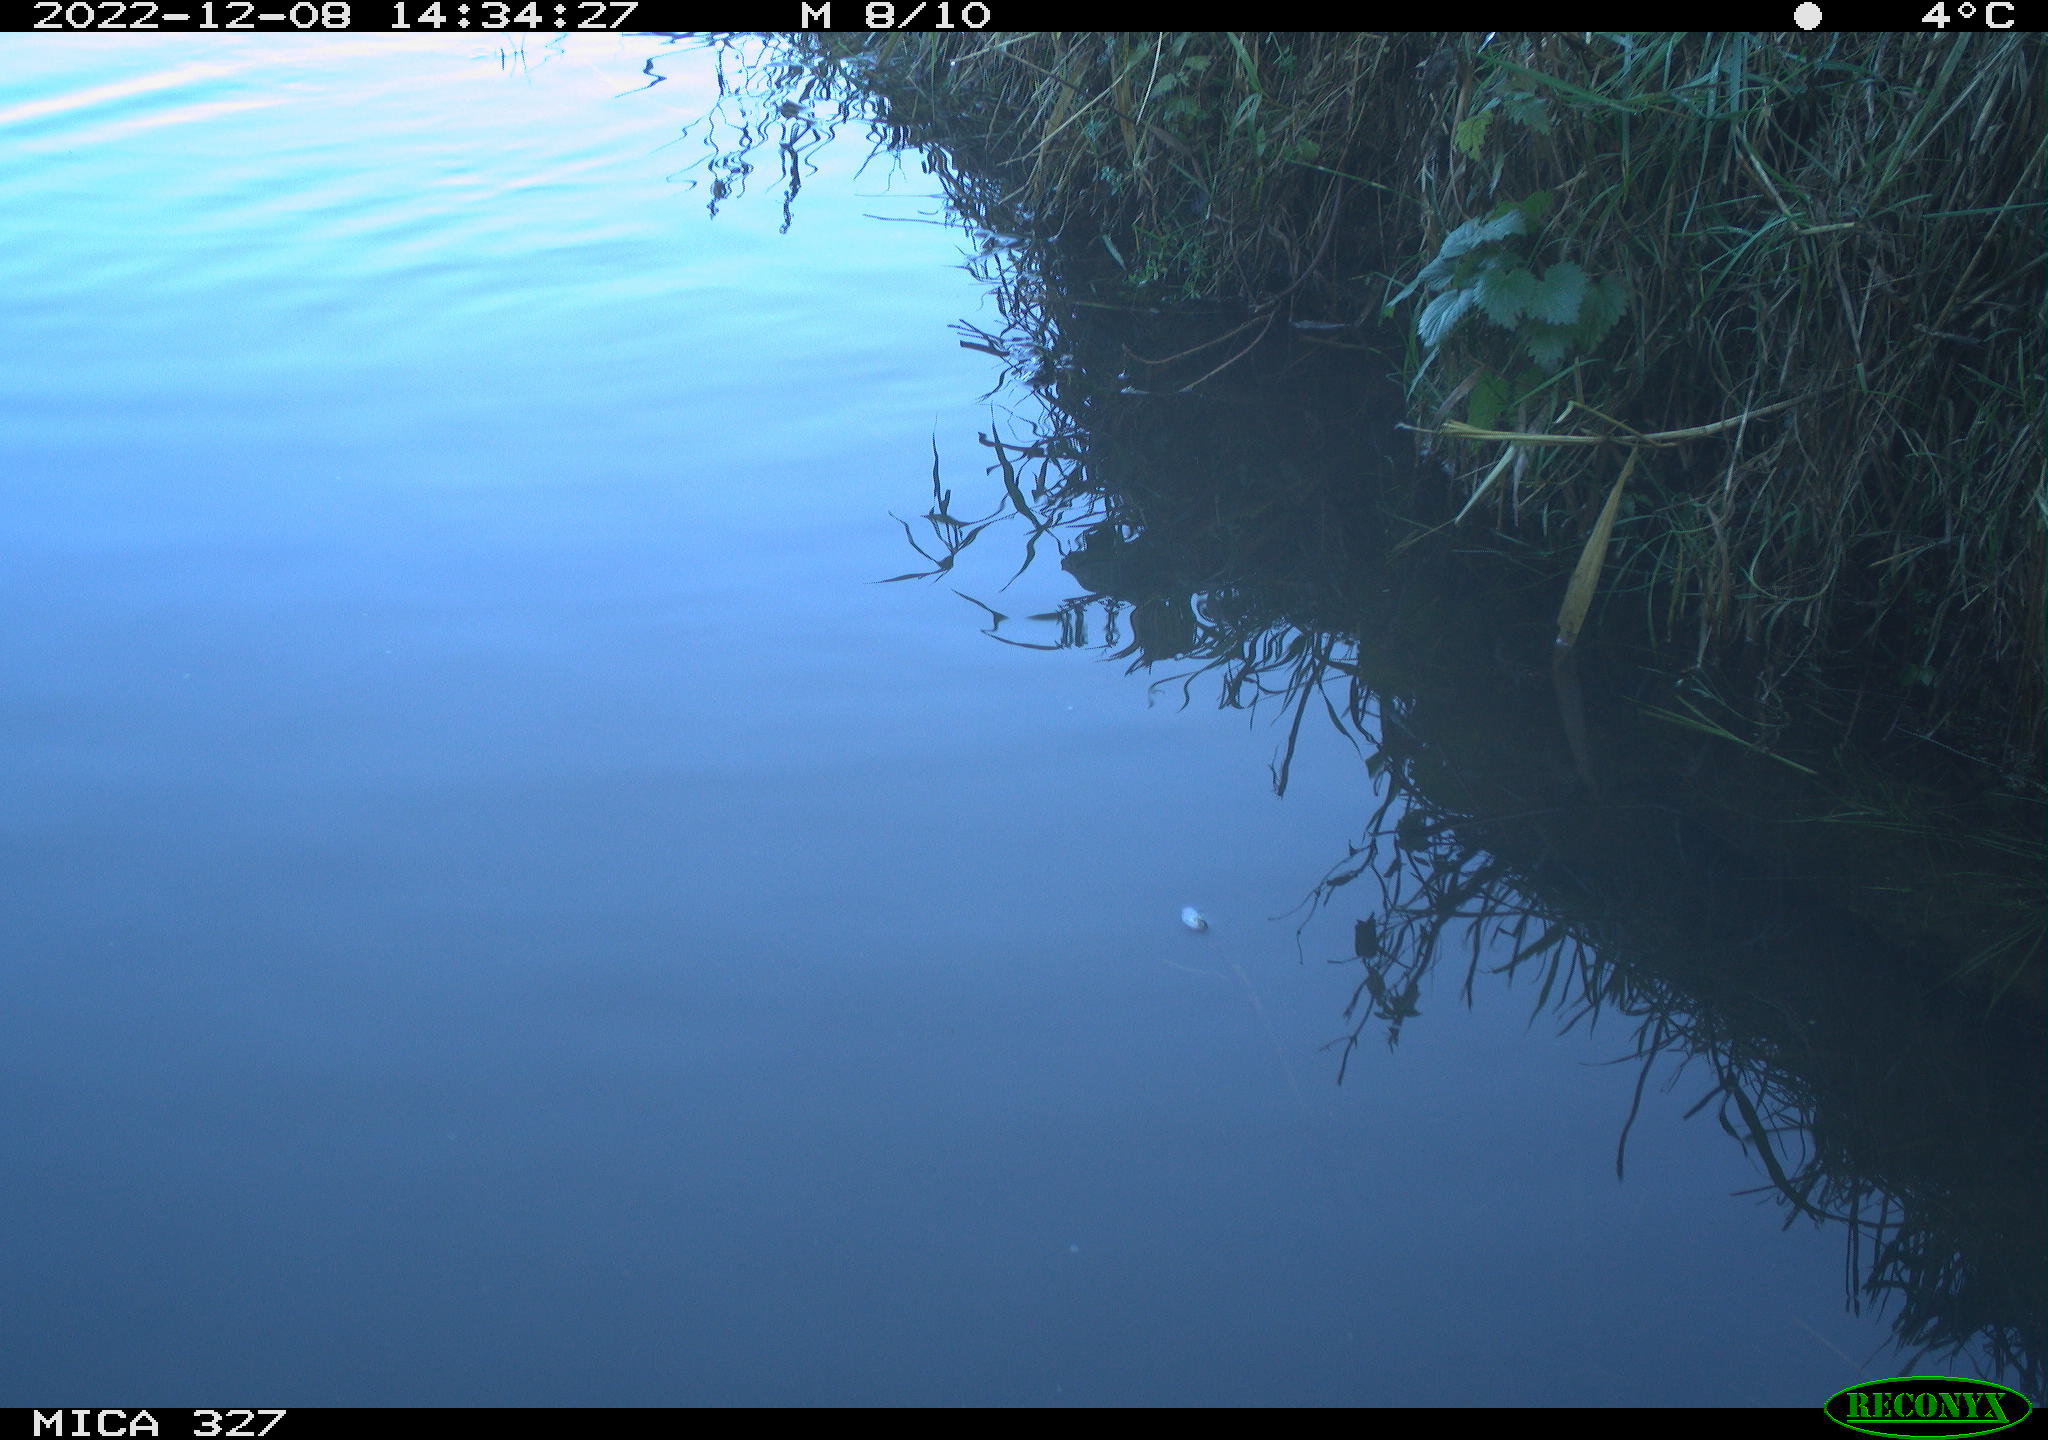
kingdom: Animalia
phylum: Chordata
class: Aves
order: Gruiformes
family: Rallidae
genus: Gallinula
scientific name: Gallinula chloropus
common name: Common moorhen
